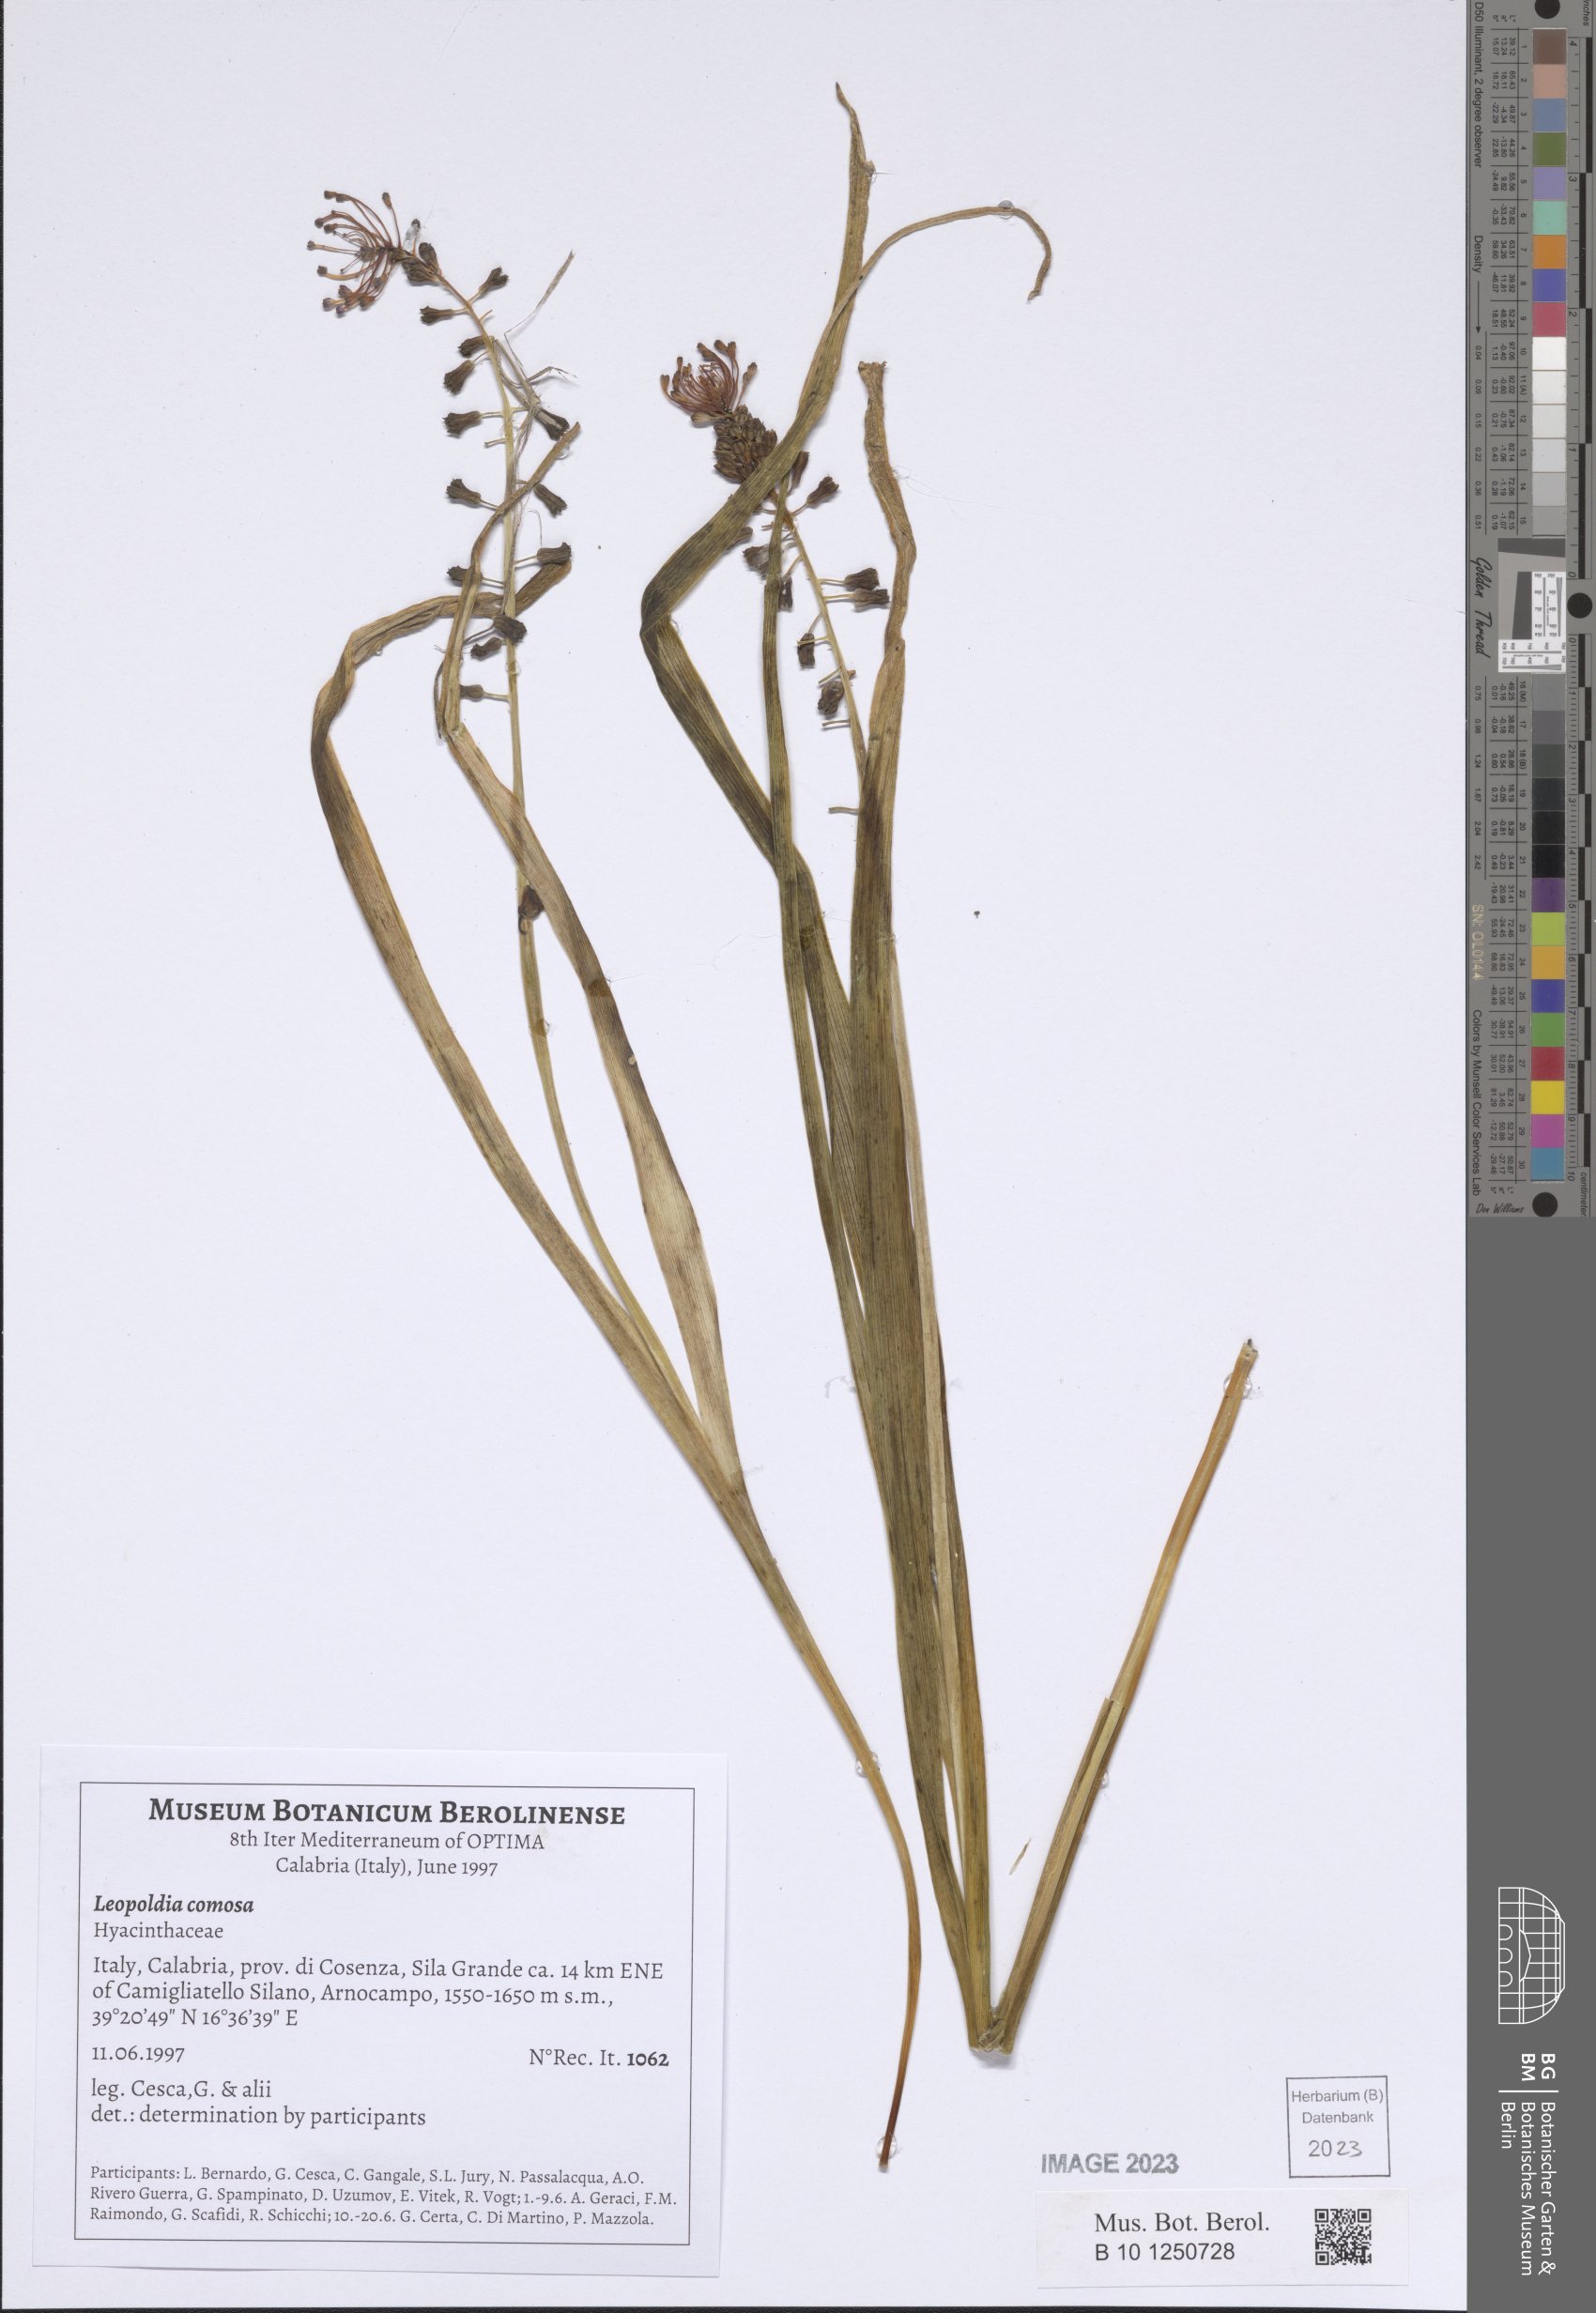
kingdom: Plantae
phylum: Tracheophyta
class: Liliopsida
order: Asparagales
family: Asparagaceae
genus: Muscari
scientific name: Muscari comosum
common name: Tassel hyacinth
